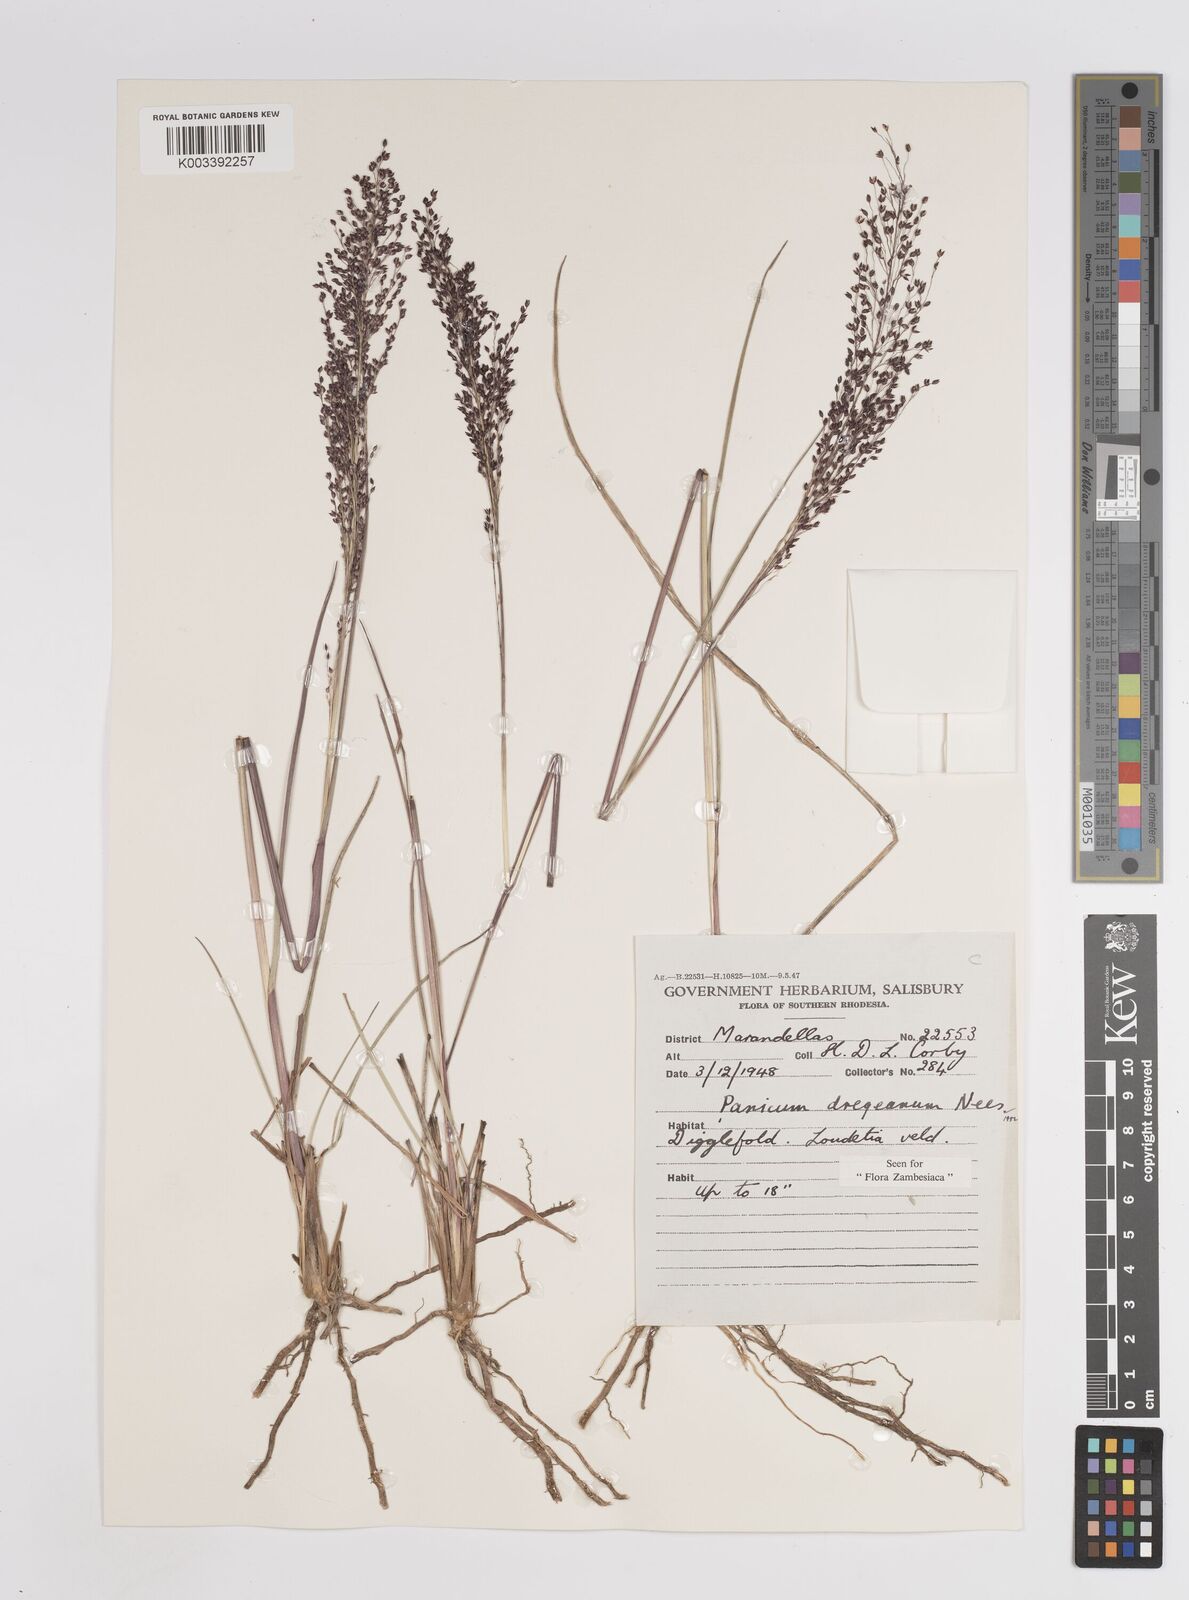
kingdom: Plantae
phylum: Tracheophyta
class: Liliopsida
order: Poales
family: Poaceae
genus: Panicum
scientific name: Panicum dregeanum
